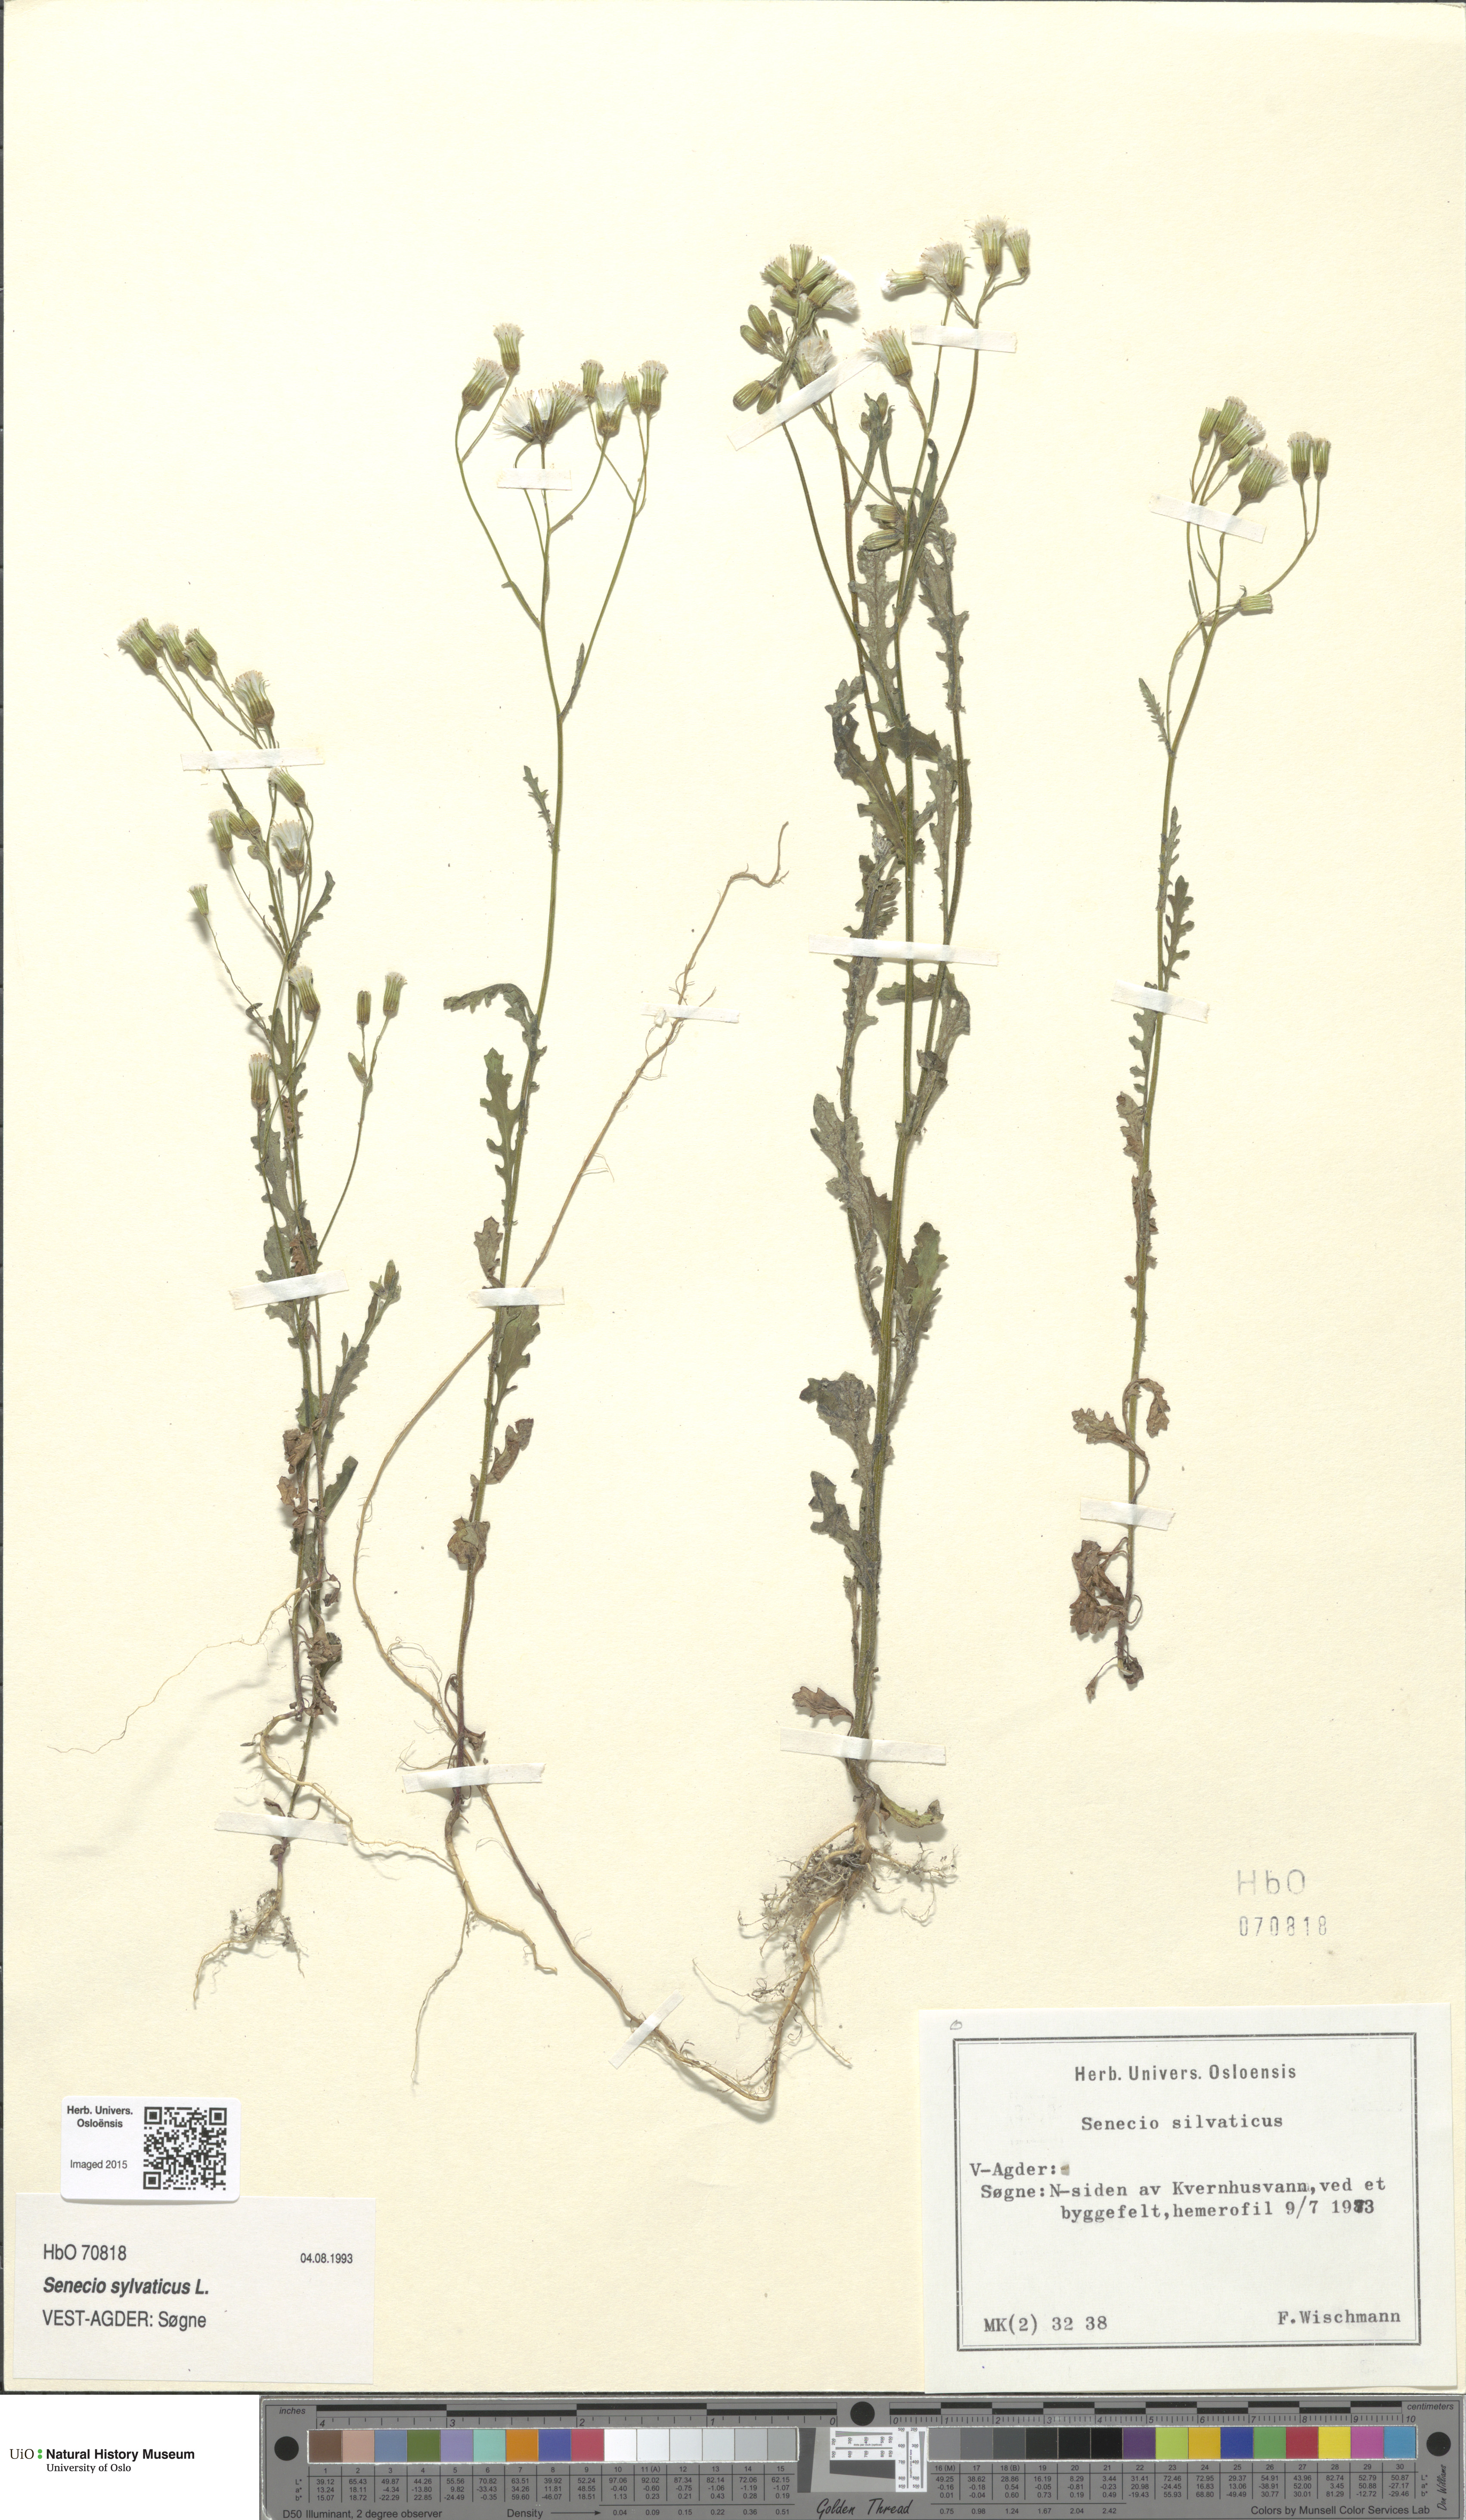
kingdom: Plantae
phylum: Tracheophyta
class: Magnoliopsida
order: Asterales
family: Asteraceae
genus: Senecio
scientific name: Senecio sylvaticus
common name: Woodland ragwort
